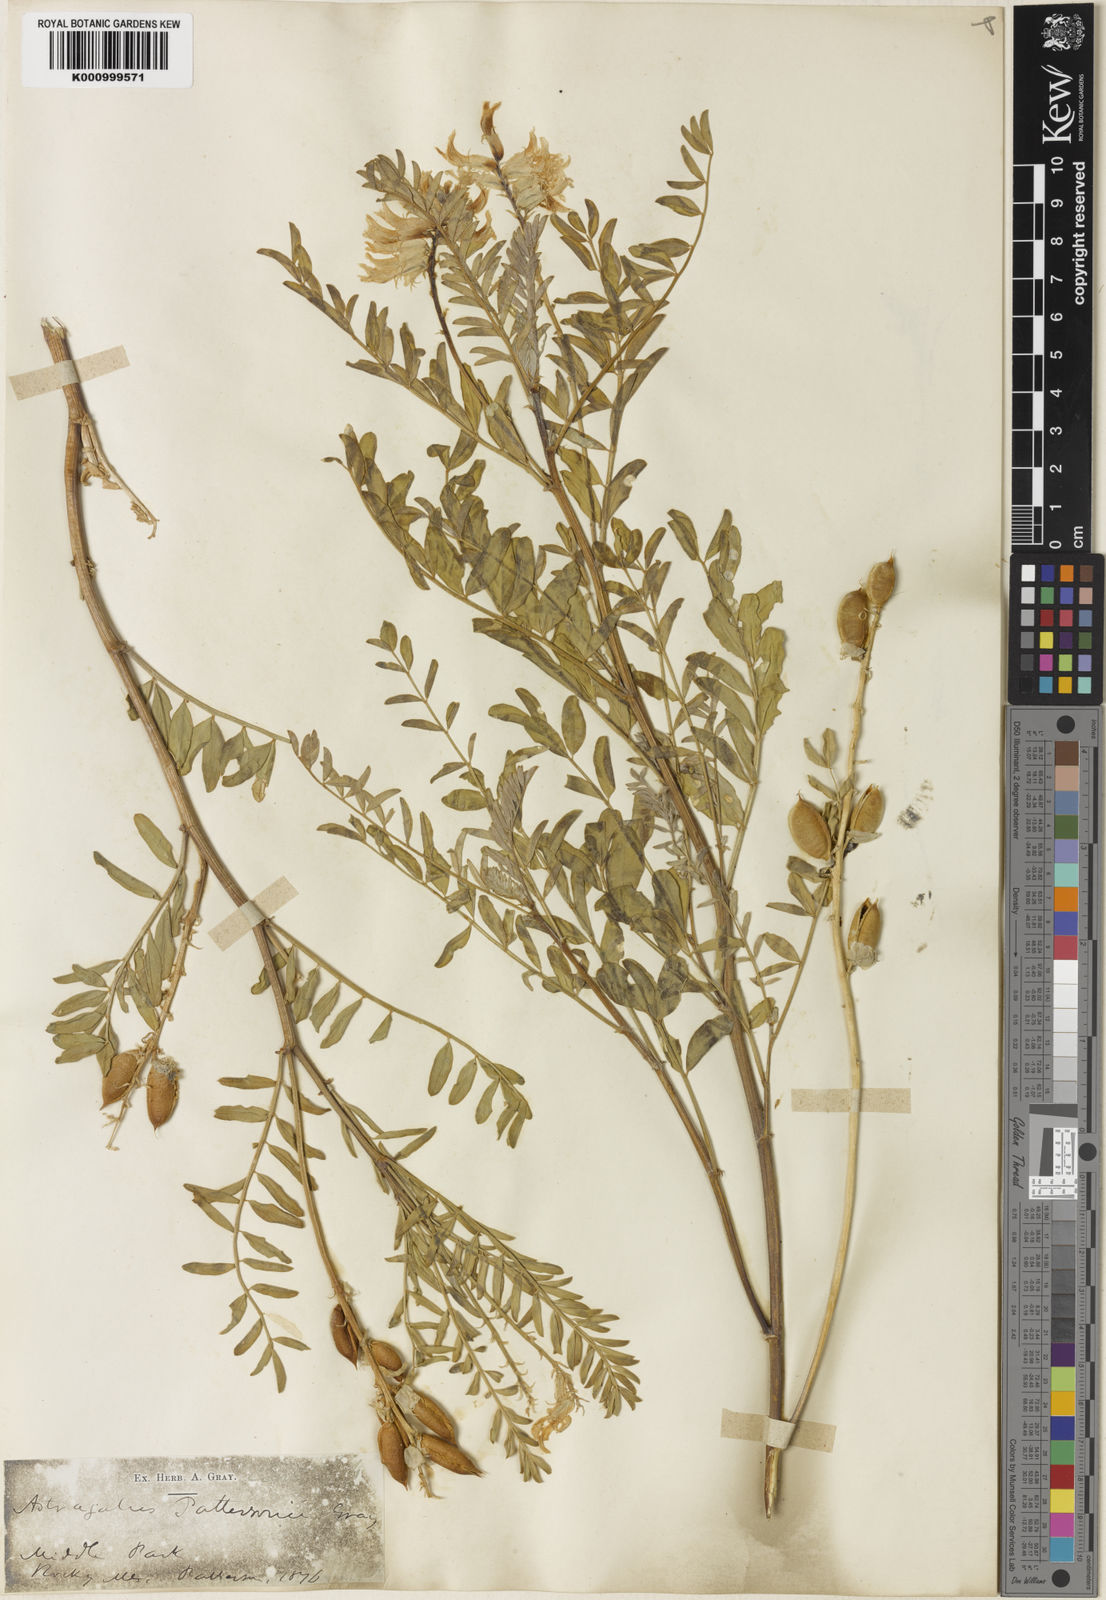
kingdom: Plantae
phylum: Tracheophyta
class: Magnoliopsida
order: Fabales
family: Fabaceae
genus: Astragalus
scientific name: Astragalus pattersonii
